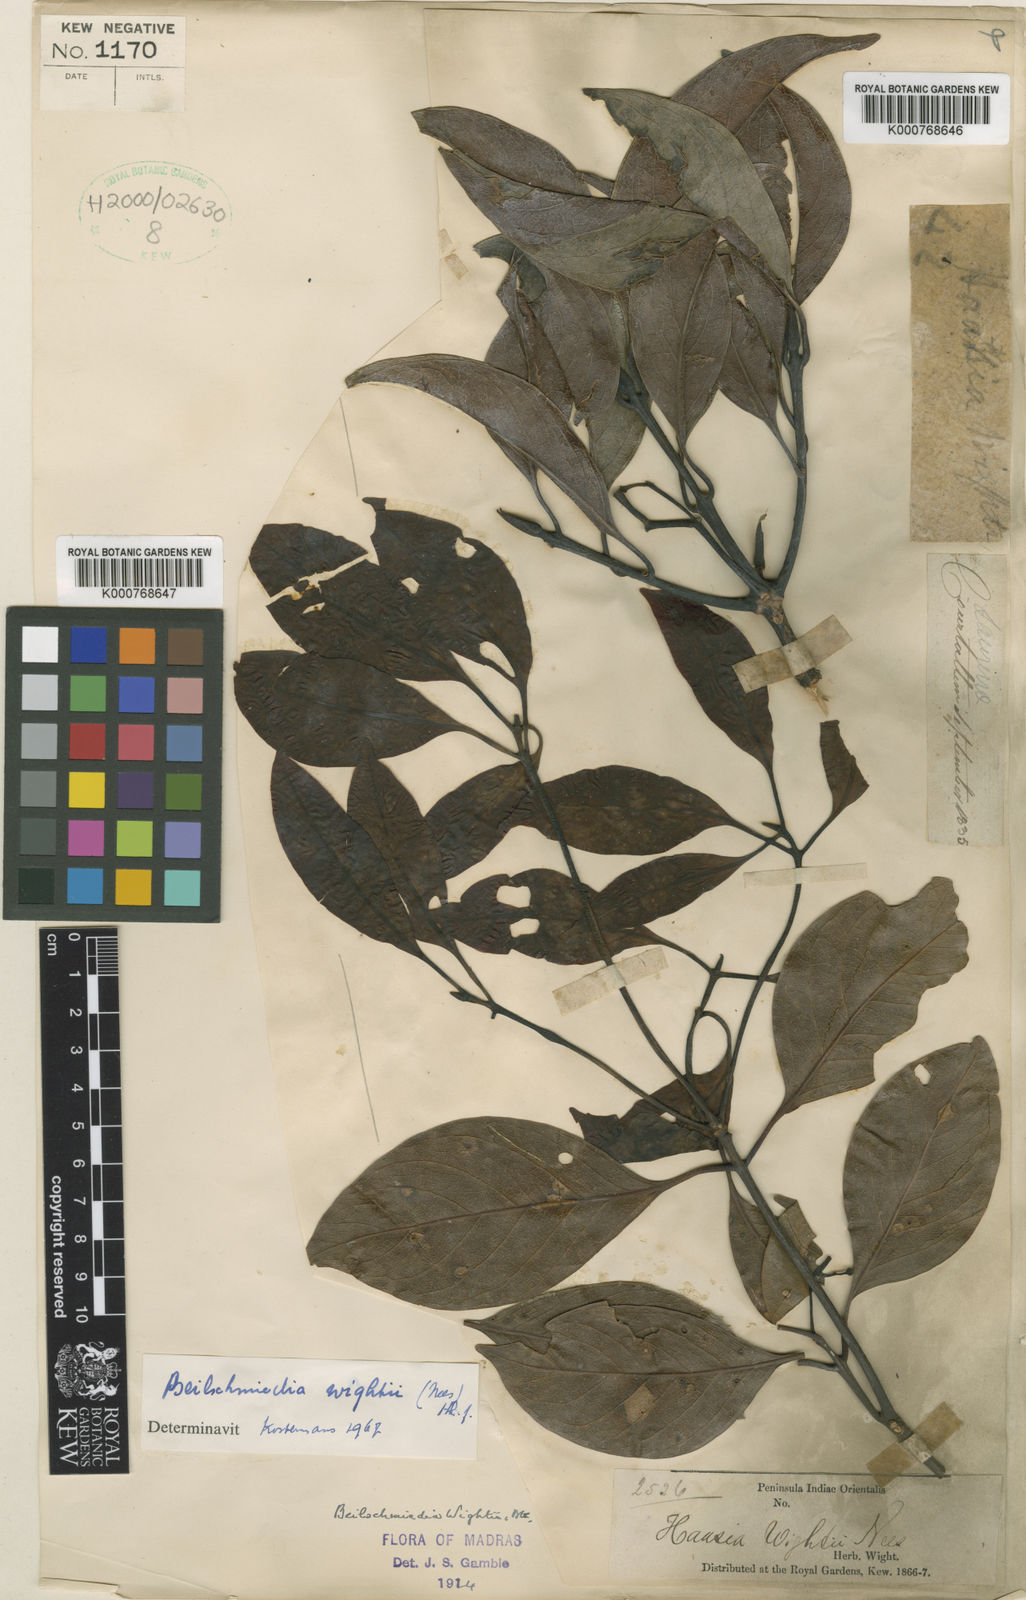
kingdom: Plantae
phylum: Tracheophyta
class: Magnoliopsida
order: Laurales
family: Lauraceae
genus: Beilschmiedia
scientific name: Beilschmiedia
